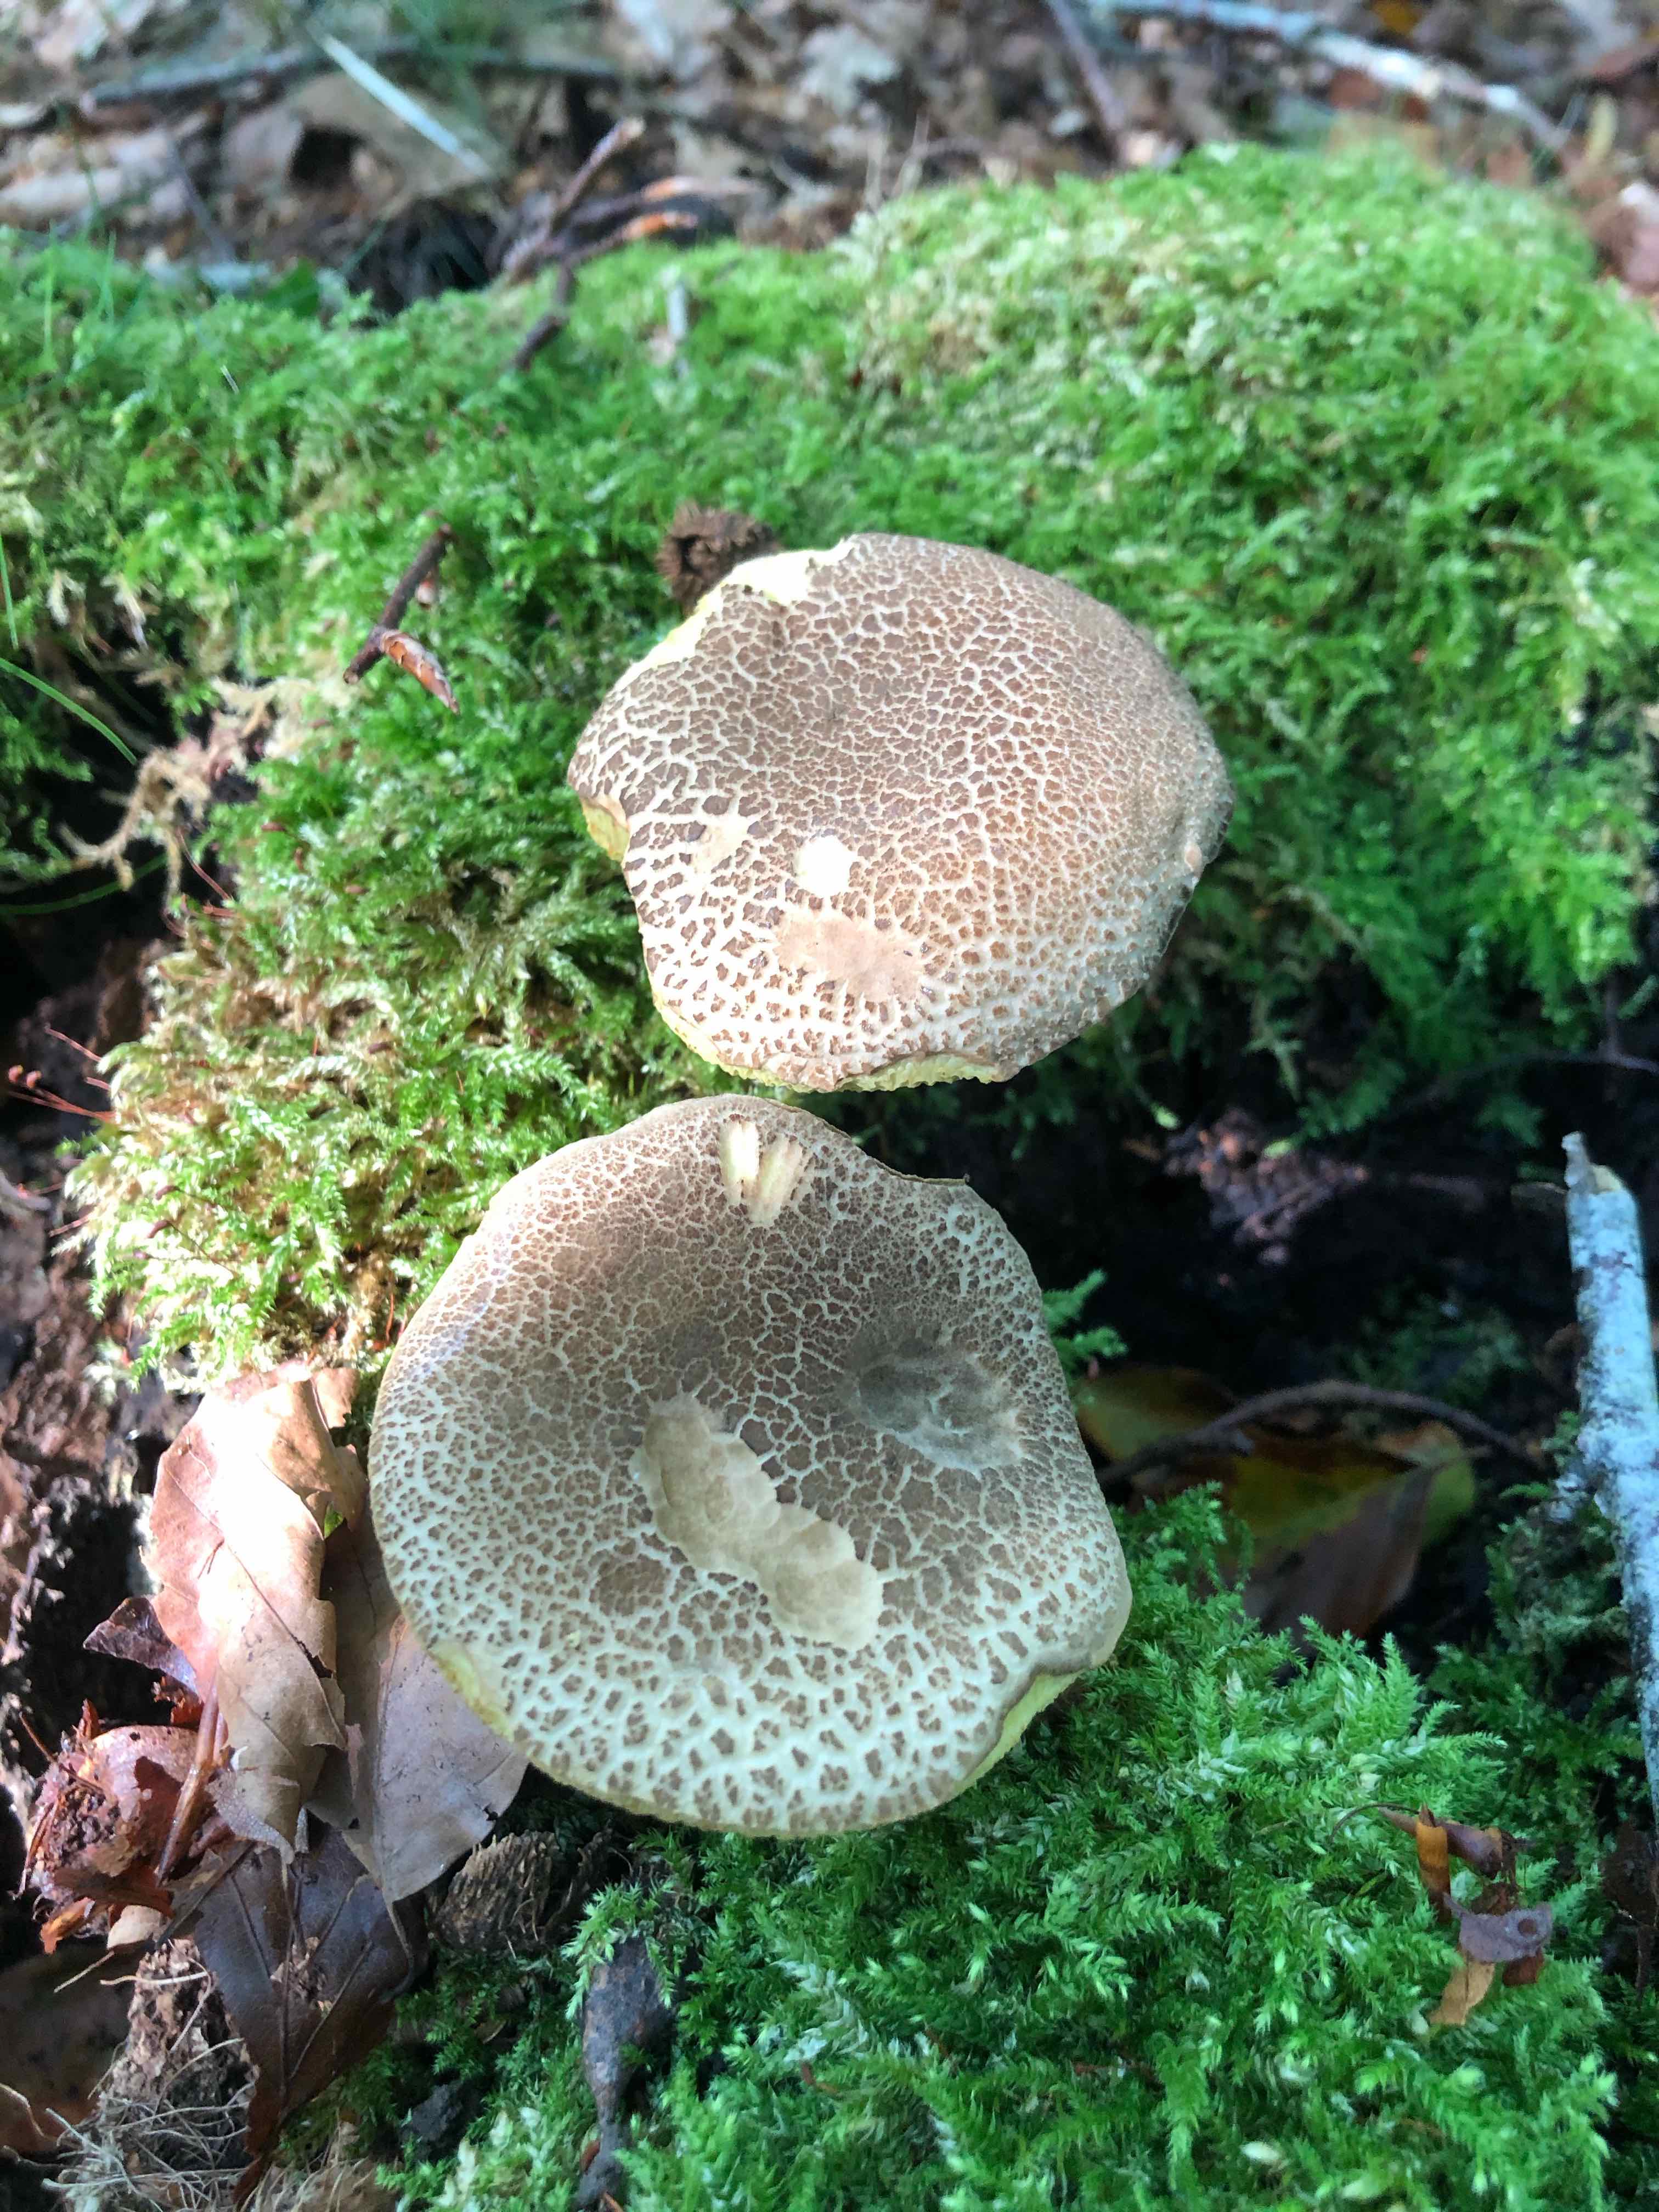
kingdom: Fungi
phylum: Basidiomycota
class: Agaricomycetes
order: Boletales
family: Boletaceae
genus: Xerocomellus
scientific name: Xerocomellus
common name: dværgrørhat
